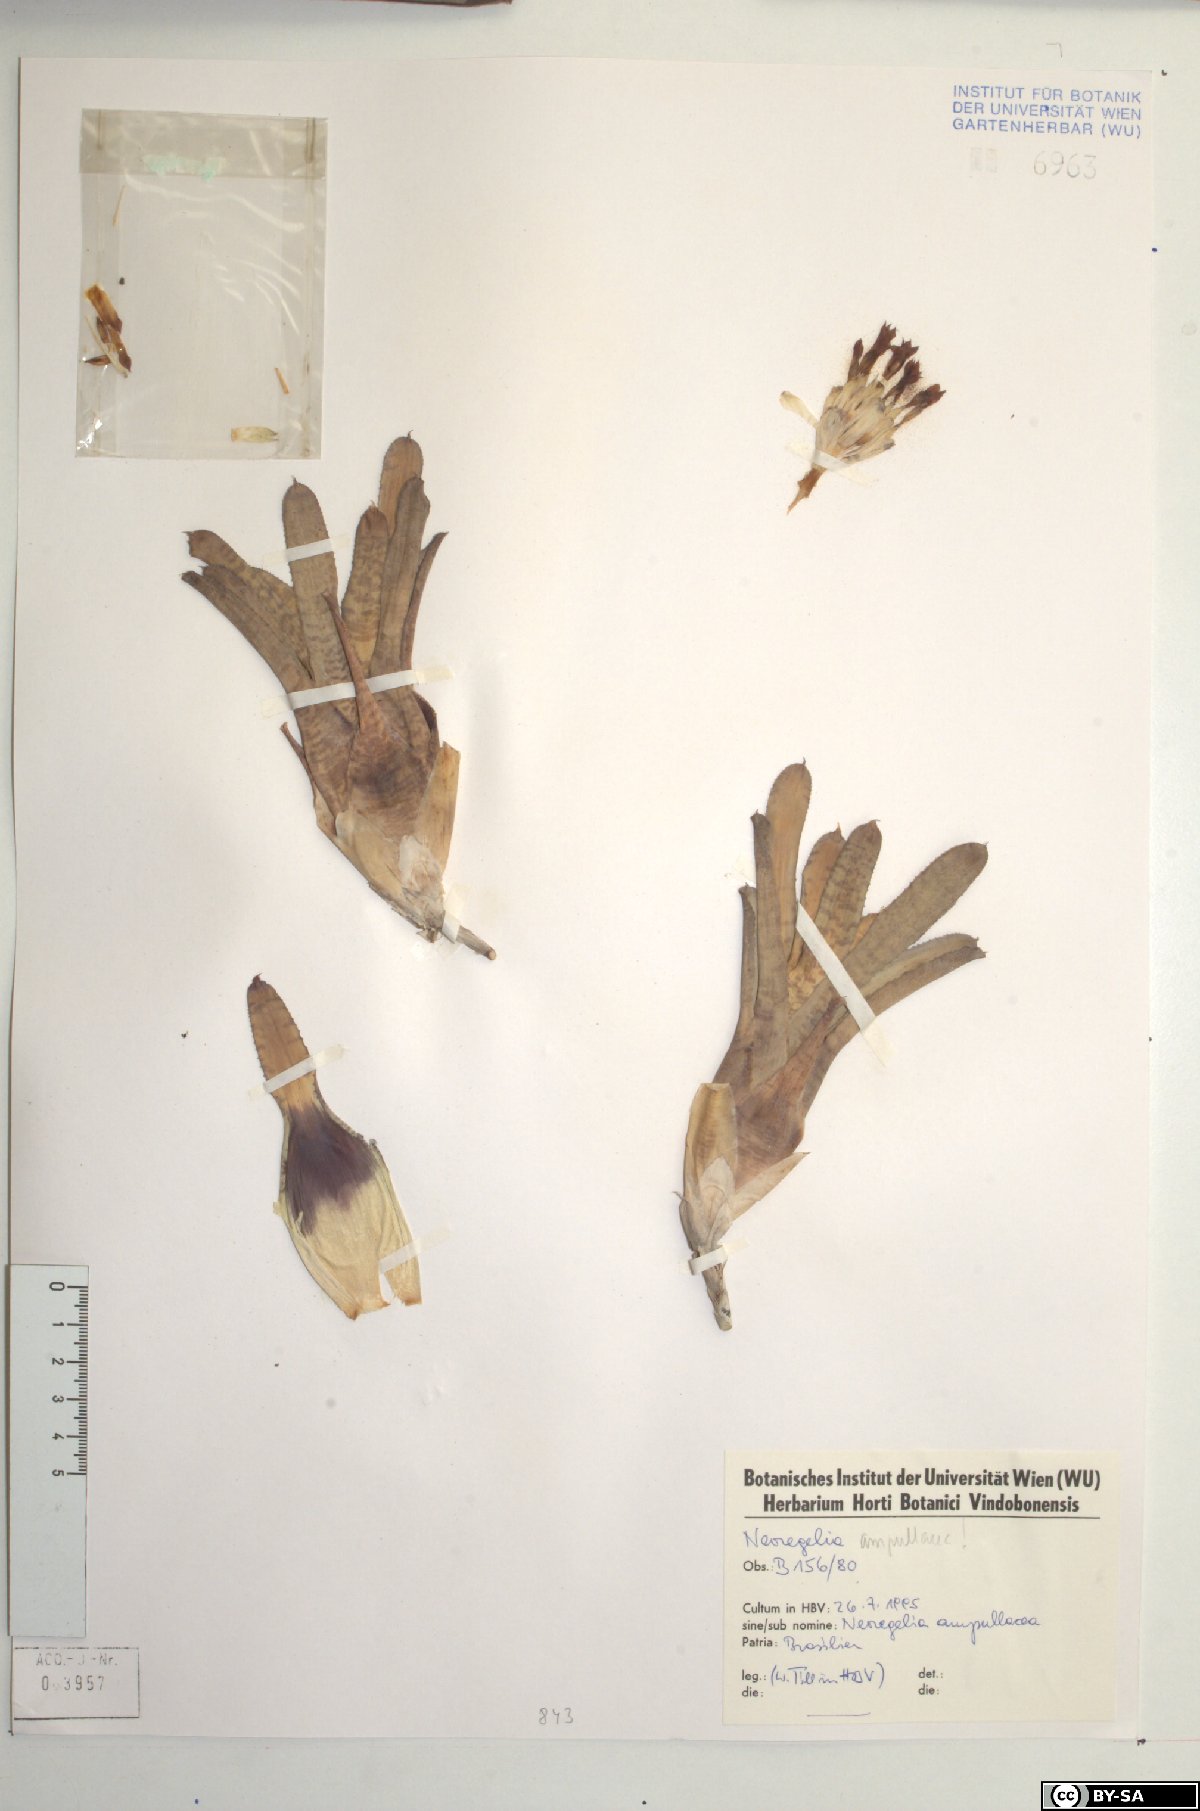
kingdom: Plantae
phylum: Tracheophyta
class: Liliopsida
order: Poales
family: Bromeliaceae
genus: Neoregelia
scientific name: Neoregelia ampullacea
